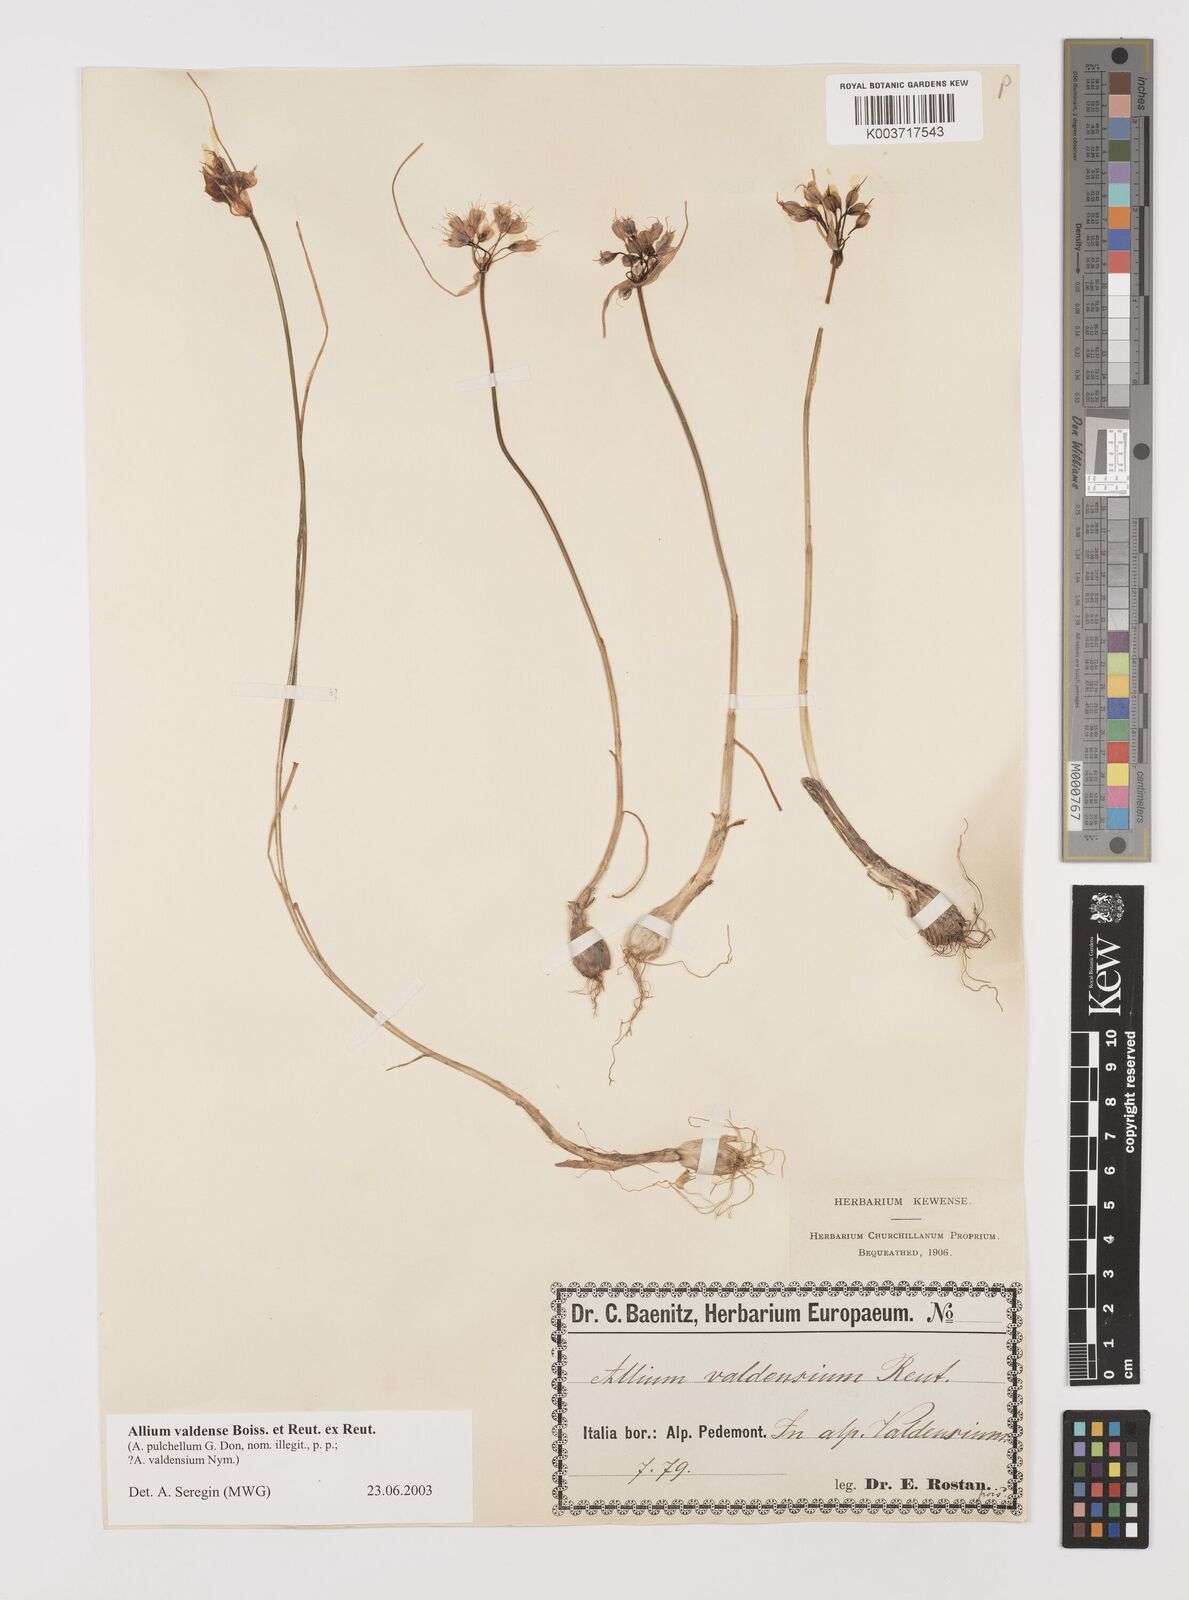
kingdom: Plantae
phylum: Tracheophyta
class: Liliopsida
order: Asparagales
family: Amaryllidaceae
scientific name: Amaryllidaceae
